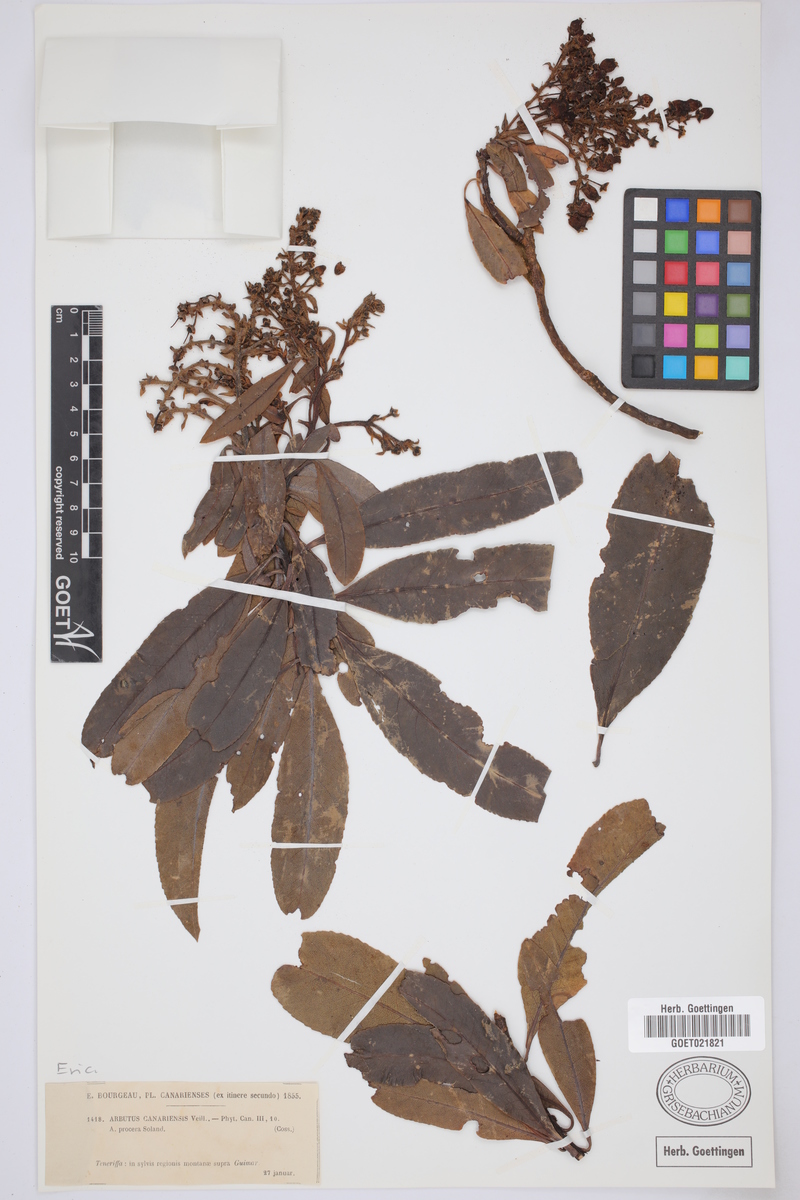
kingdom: Plantae
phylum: Tracheophyta
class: Magnoliopsida
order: Ericales
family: Ericaceae
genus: Arbutus
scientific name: Arbutus canariensis
